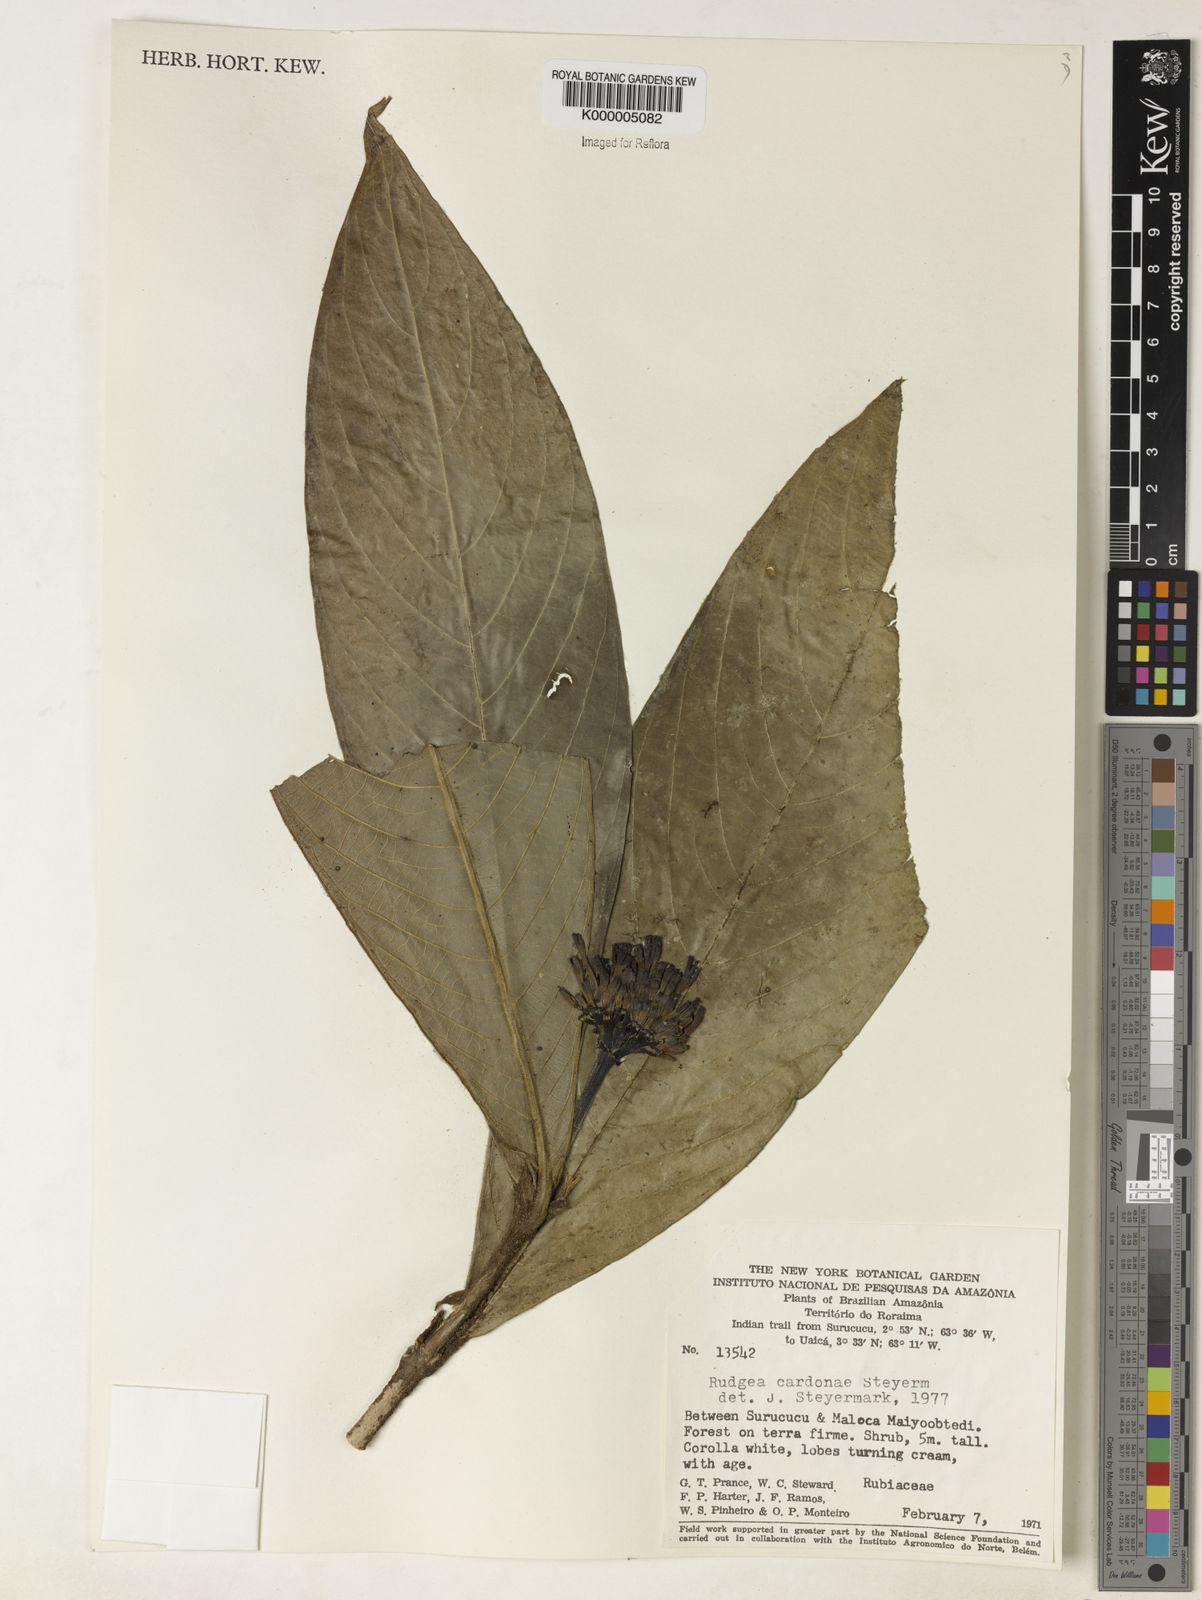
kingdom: Plantae
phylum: Tracheophyta
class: Magnoliopsida
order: Gentianales
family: Rubiaceae
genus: Rudgea
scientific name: Rudgea longiflora
